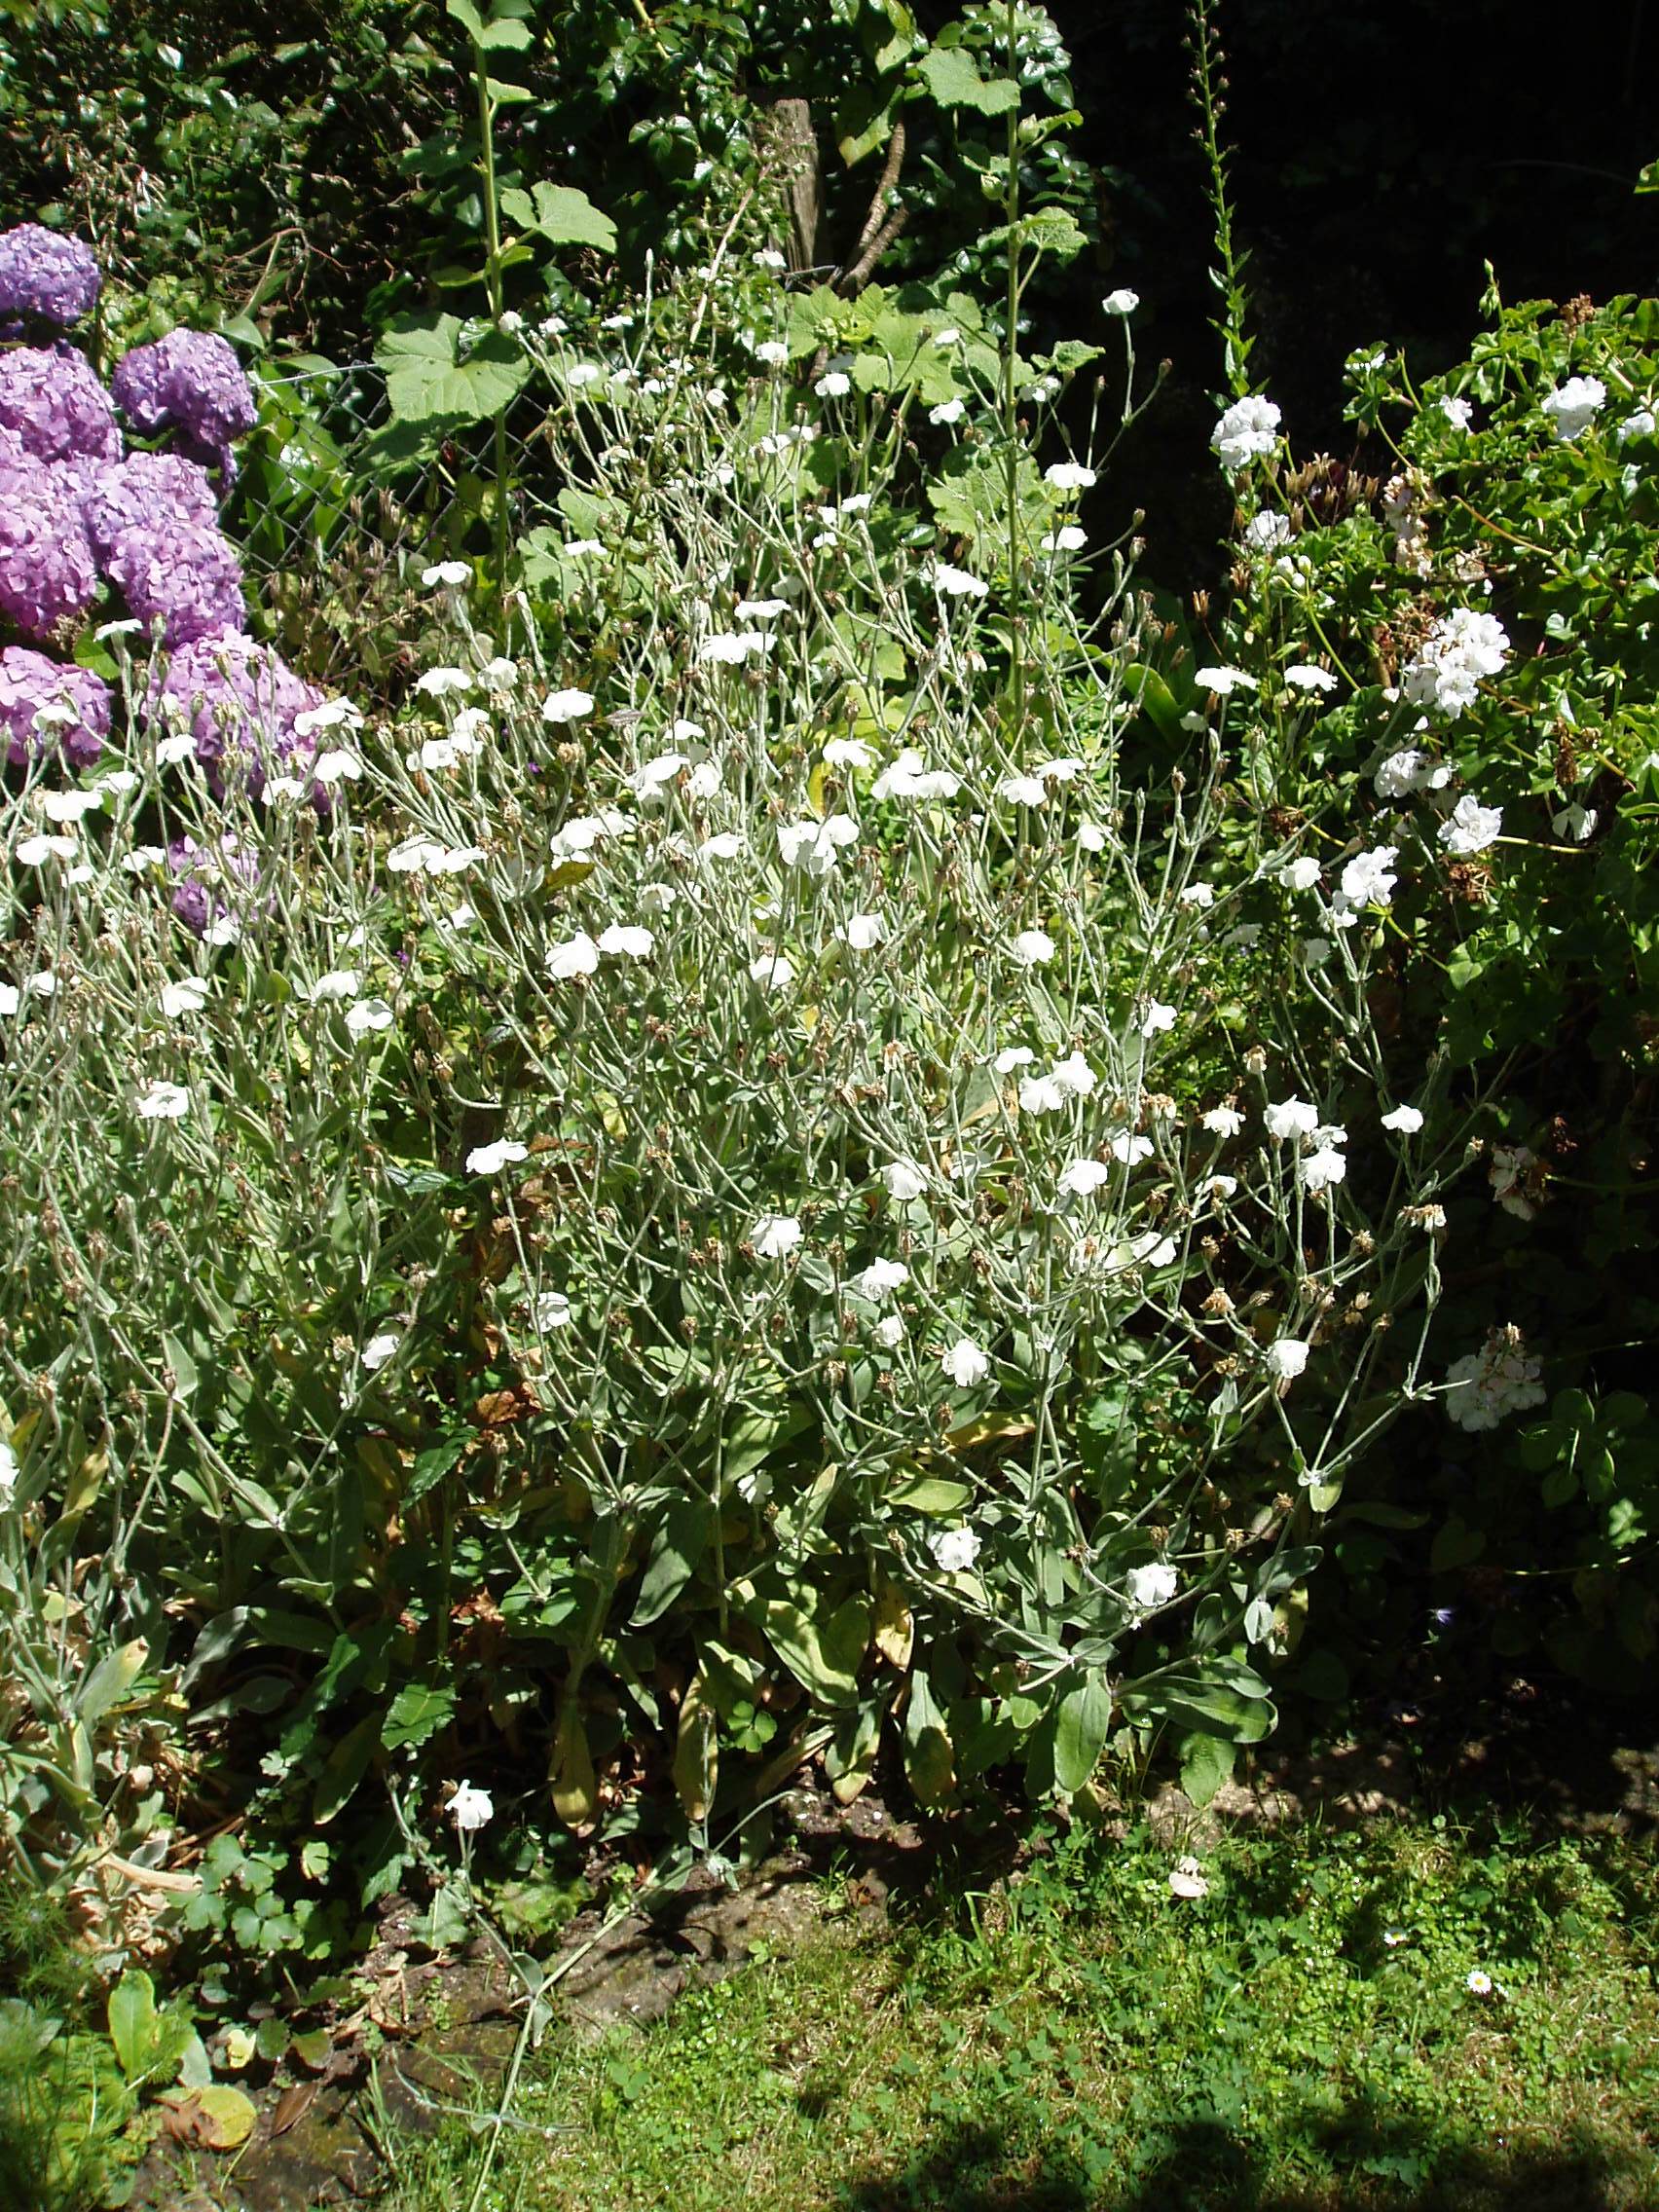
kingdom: Plantae
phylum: Tracheophyta
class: Magnoliopsida
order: Caryophyllales
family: Caryophyllaceae
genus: Silene
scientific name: Silene coronaria
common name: Rose campion
